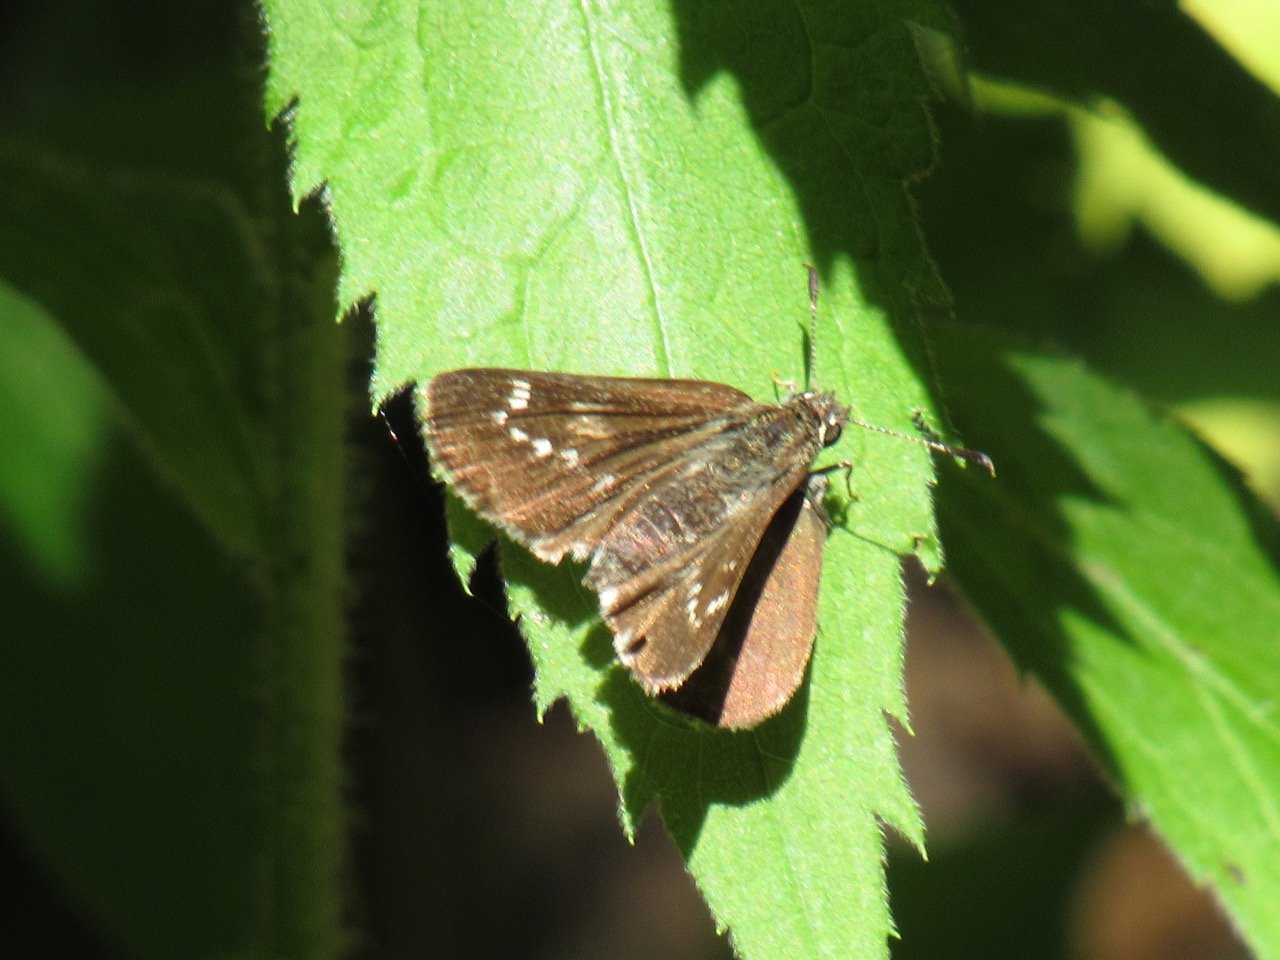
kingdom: Animalia
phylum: Arthropoda
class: Insecta
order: Lepidoptera
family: Hesperiidae
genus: Mastor
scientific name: Mastor hegon
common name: Pepper and Salt Skipper
